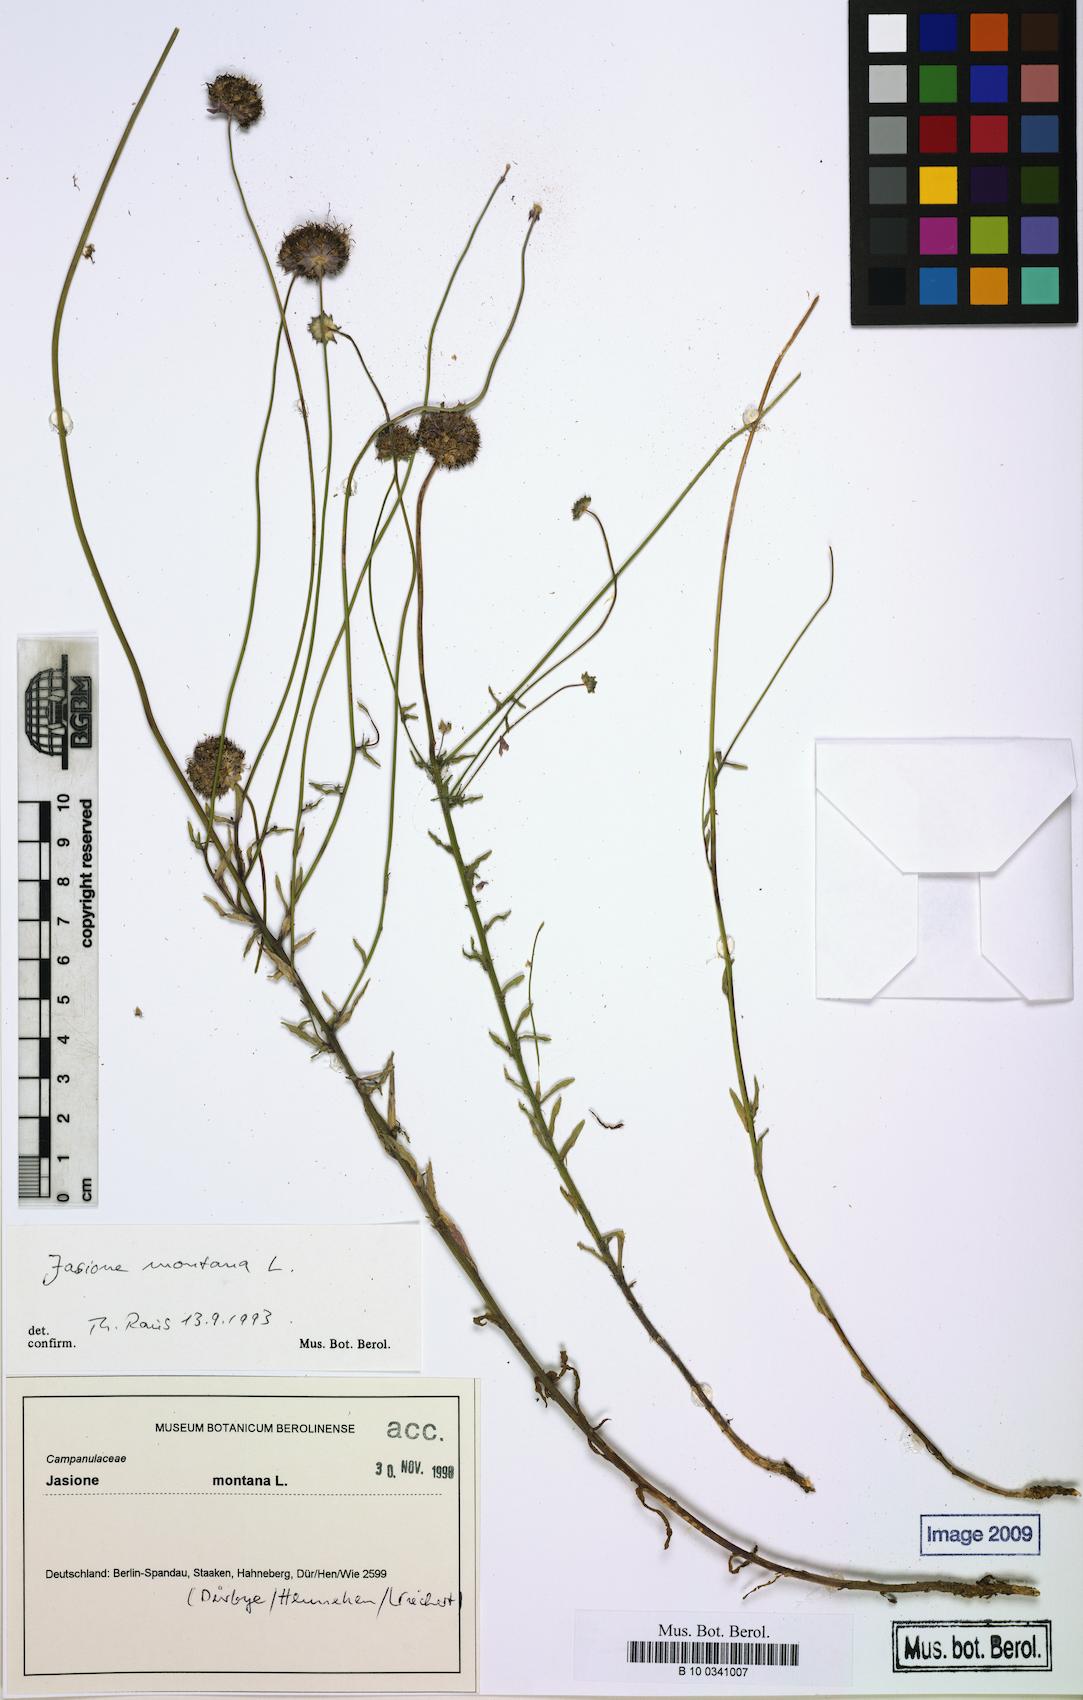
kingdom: Plantae
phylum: Tracheophyta
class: Magnoliopsida
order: Asterales
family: Campanulaceae
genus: Jasione
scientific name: Jasione montana
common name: Sheep's-bit
